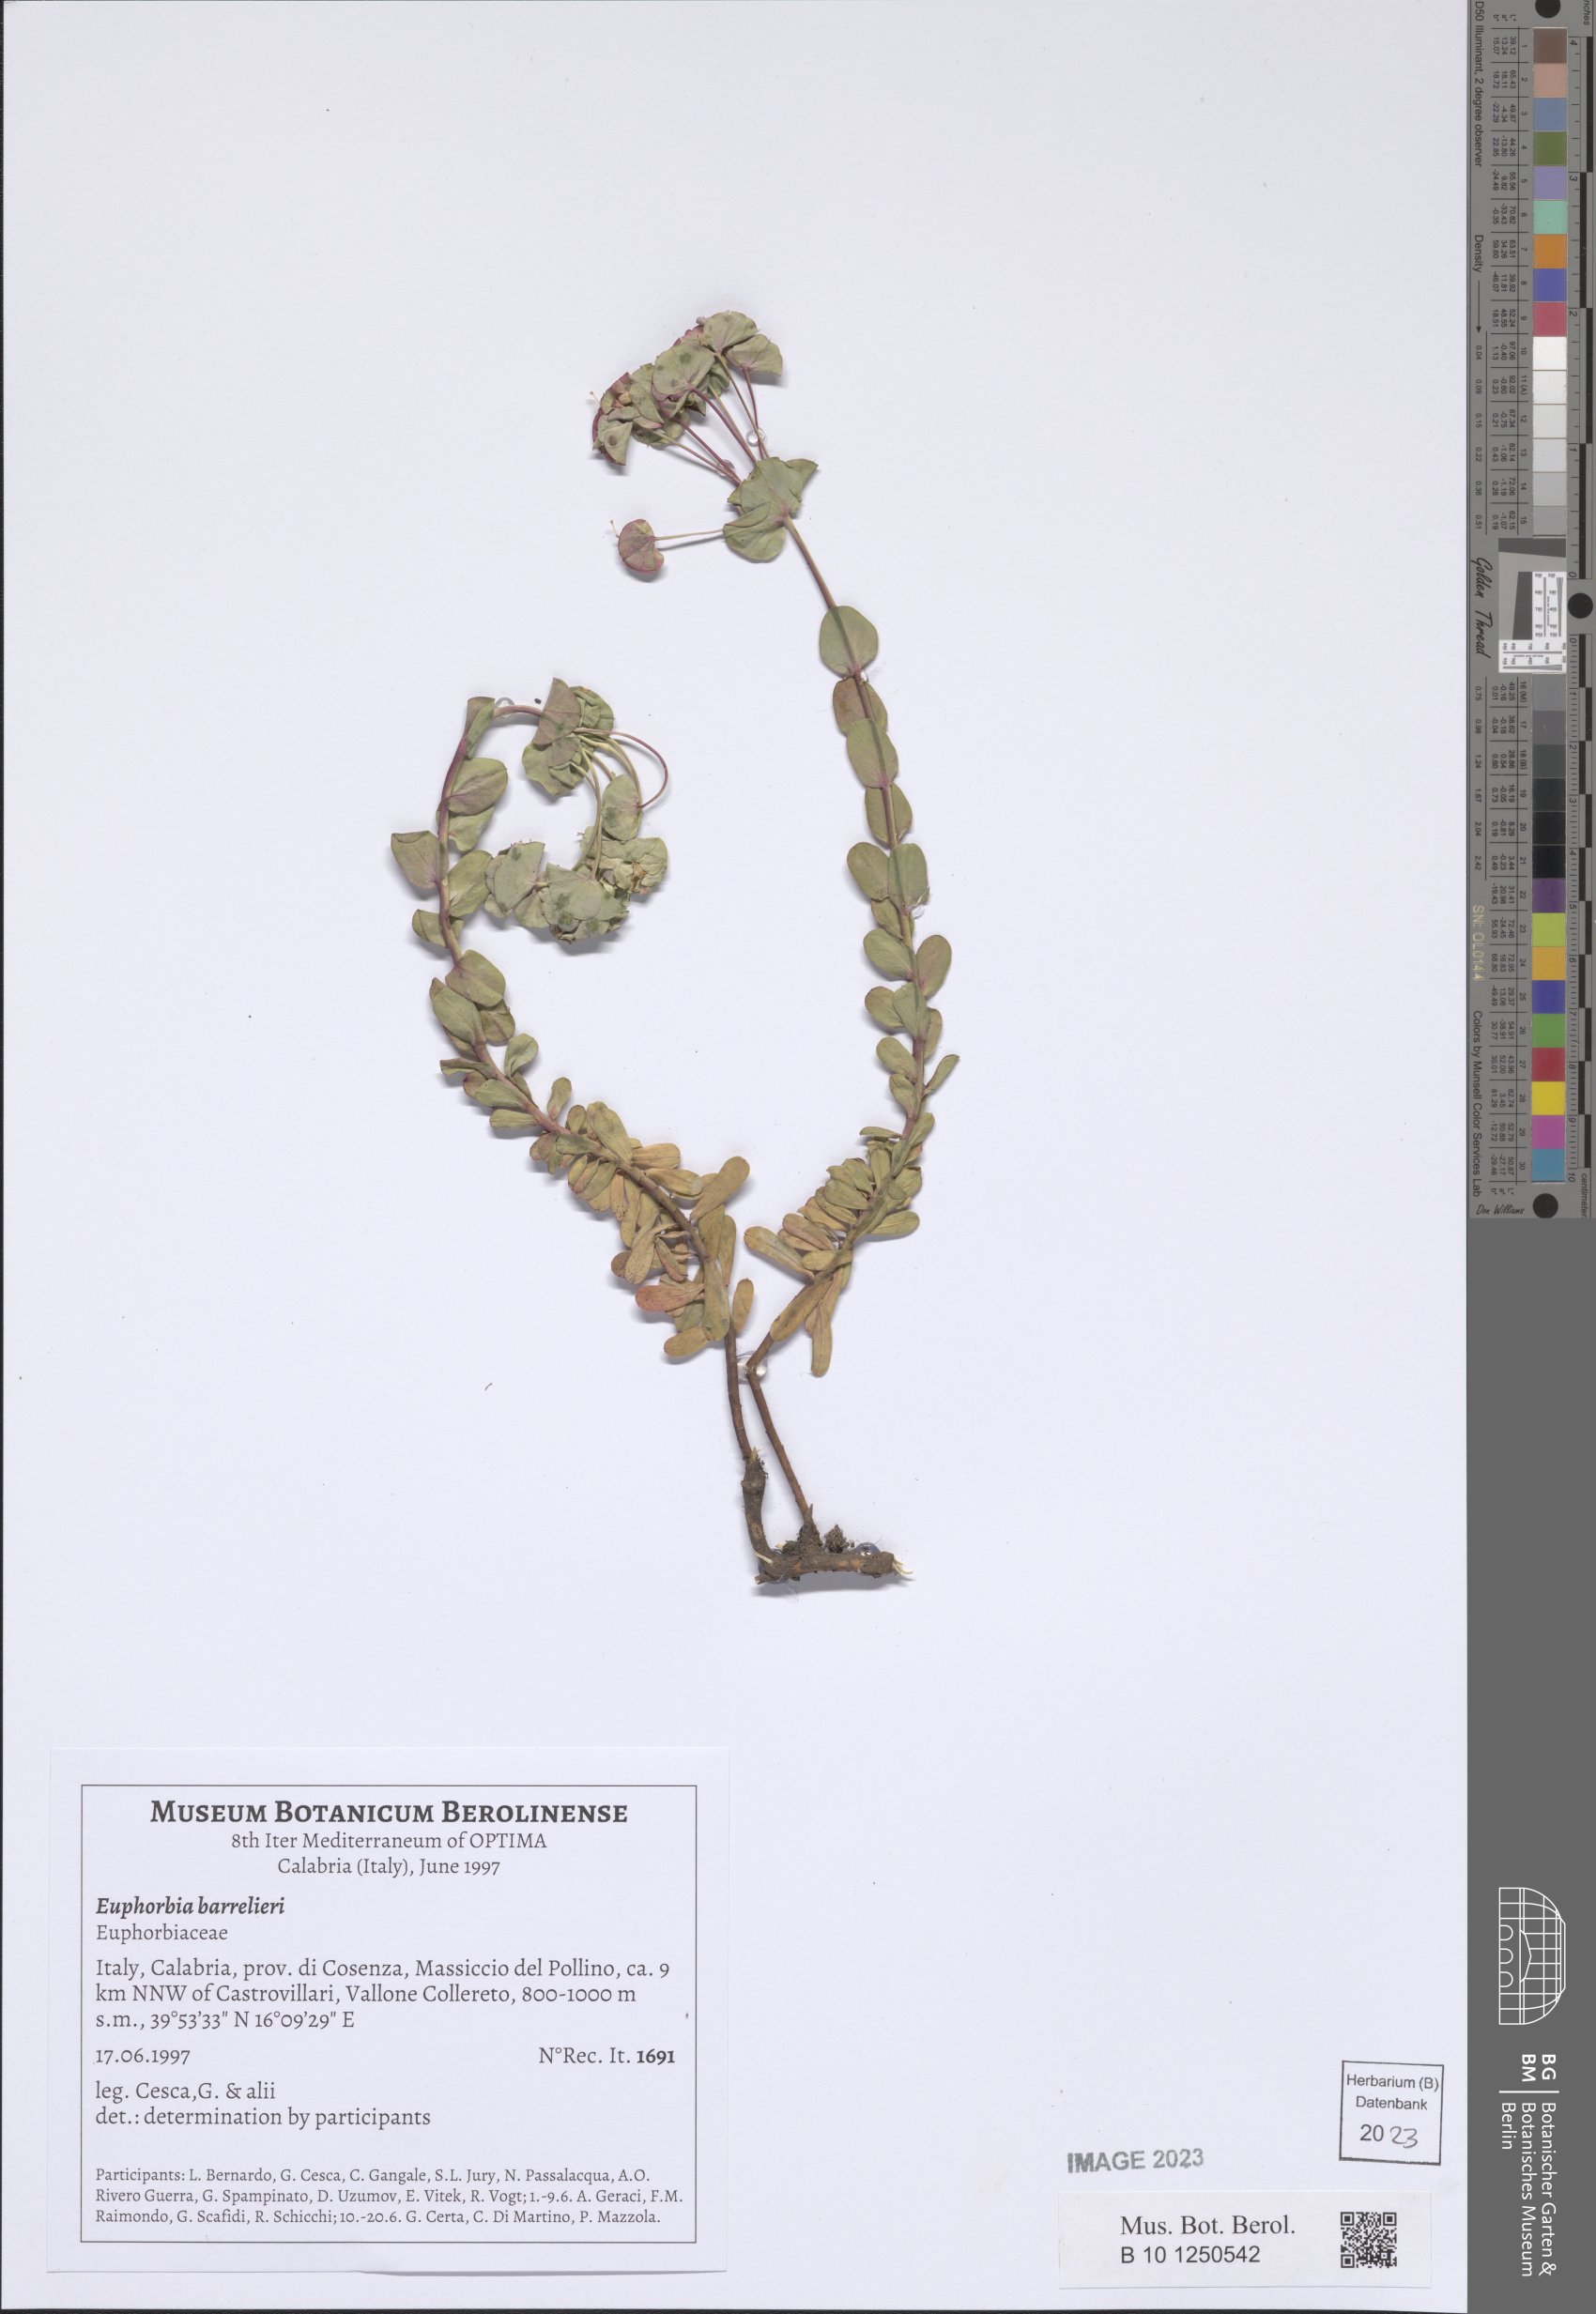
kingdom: Plantae
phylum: Tracheophyta
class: Magnoliopsida
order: Malpighiales
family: Euphorbiaceae
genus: Euphorbia
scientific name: Euphorbia barrelieri
